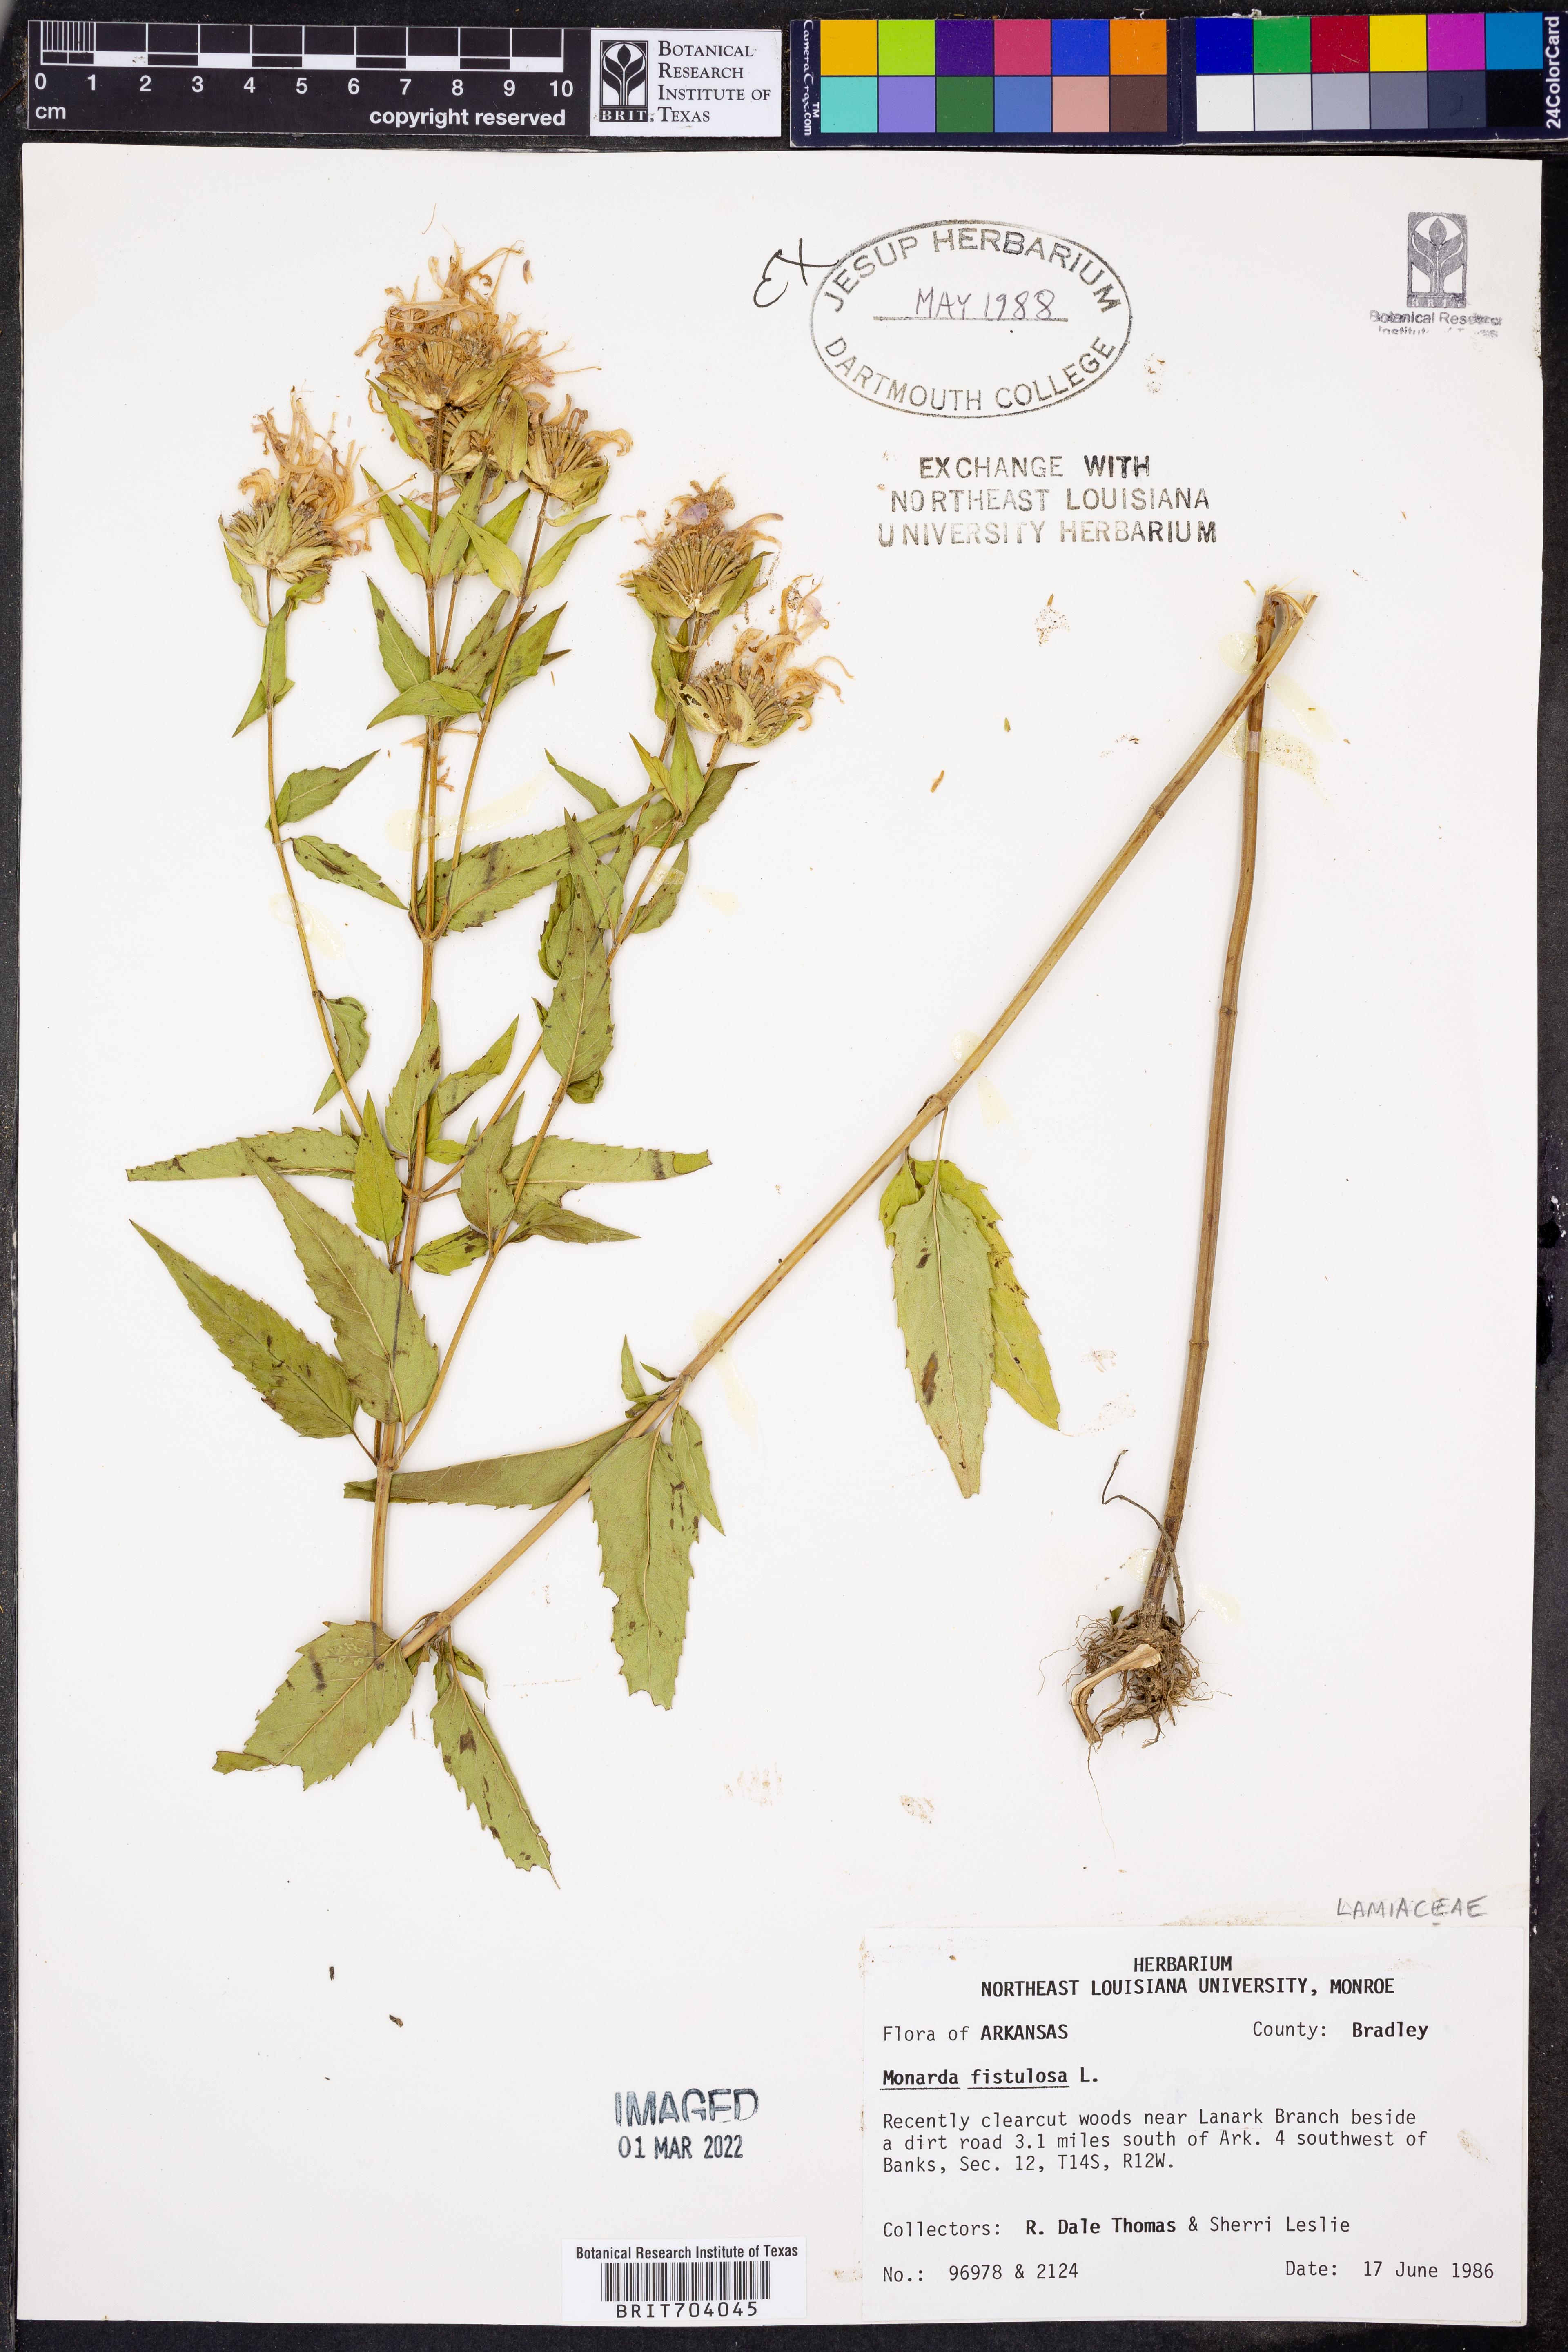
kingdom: Plantae
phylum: Tracheophyta
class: Magnoliopsida
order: Lamiales
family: Lamiaceae
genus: Monarda
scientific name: Monarda fistulosa
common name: Purple beebalm
